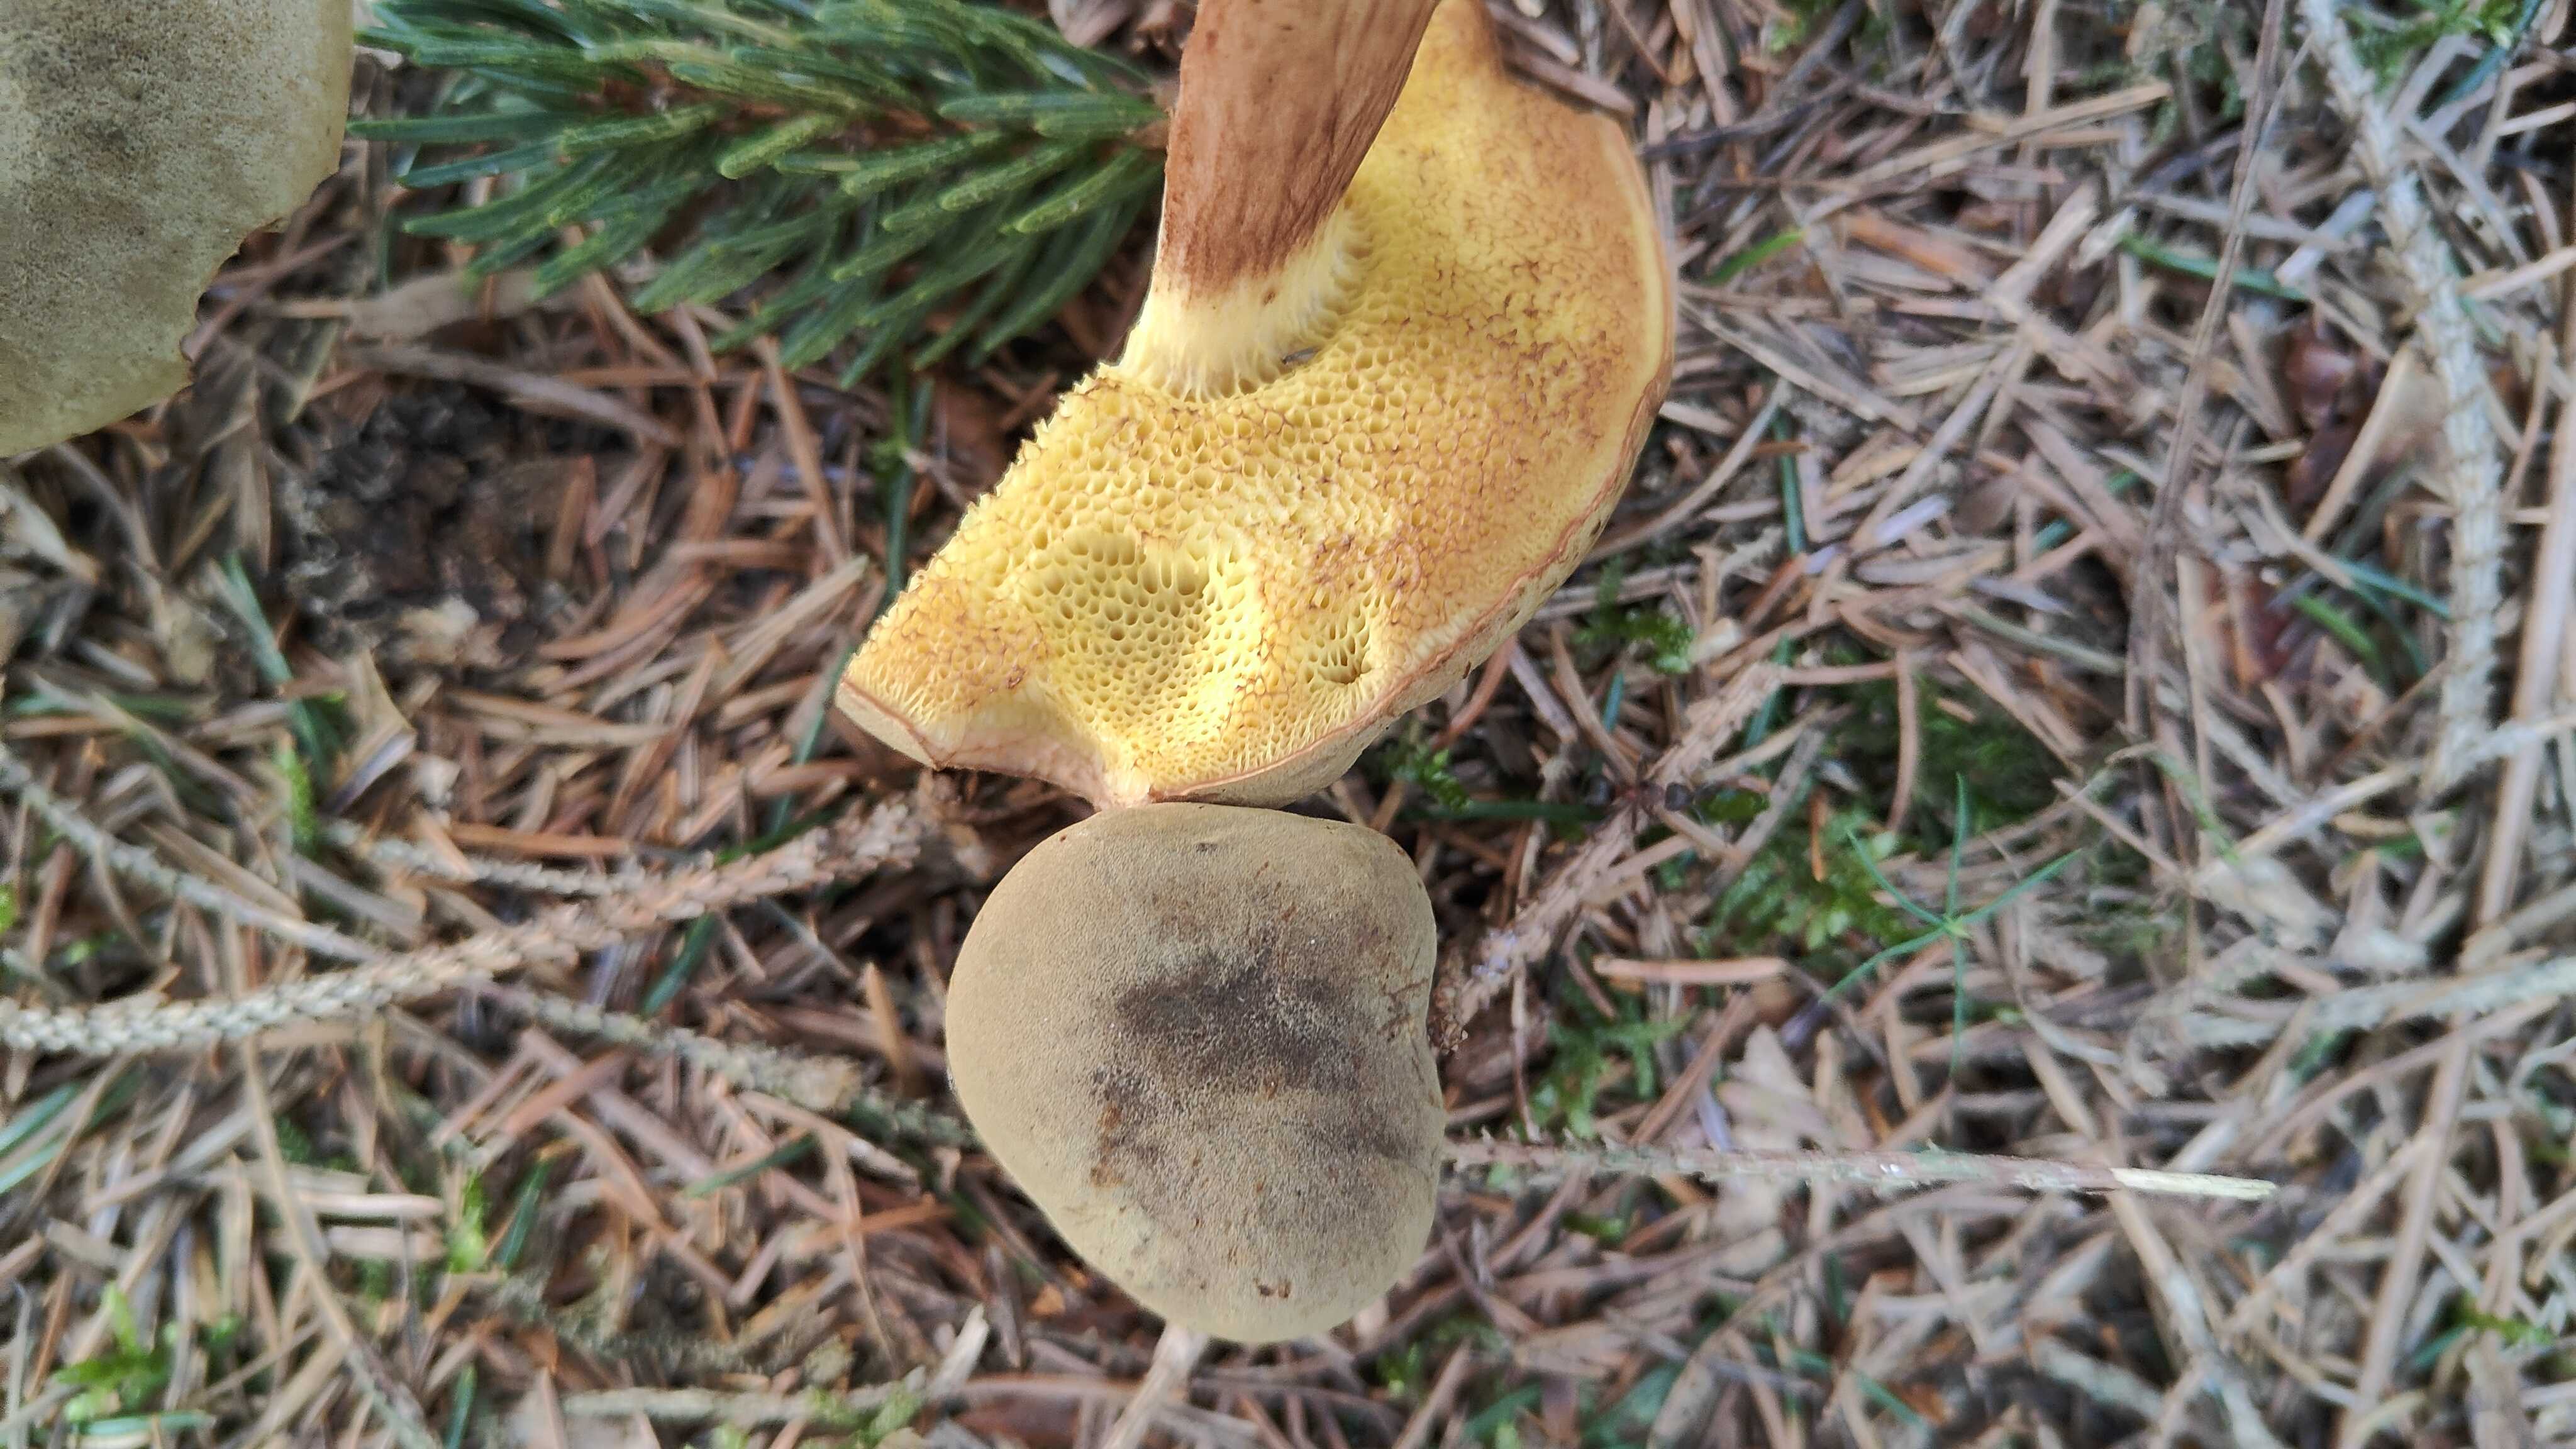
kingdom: Fungi
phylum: Basidiomycota
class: Agaricomycetes
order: Boletales
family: Boletaceae
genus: Xerocomus
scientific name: Xerocomus ferrugineus
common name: vaskeskinds-rørhat
